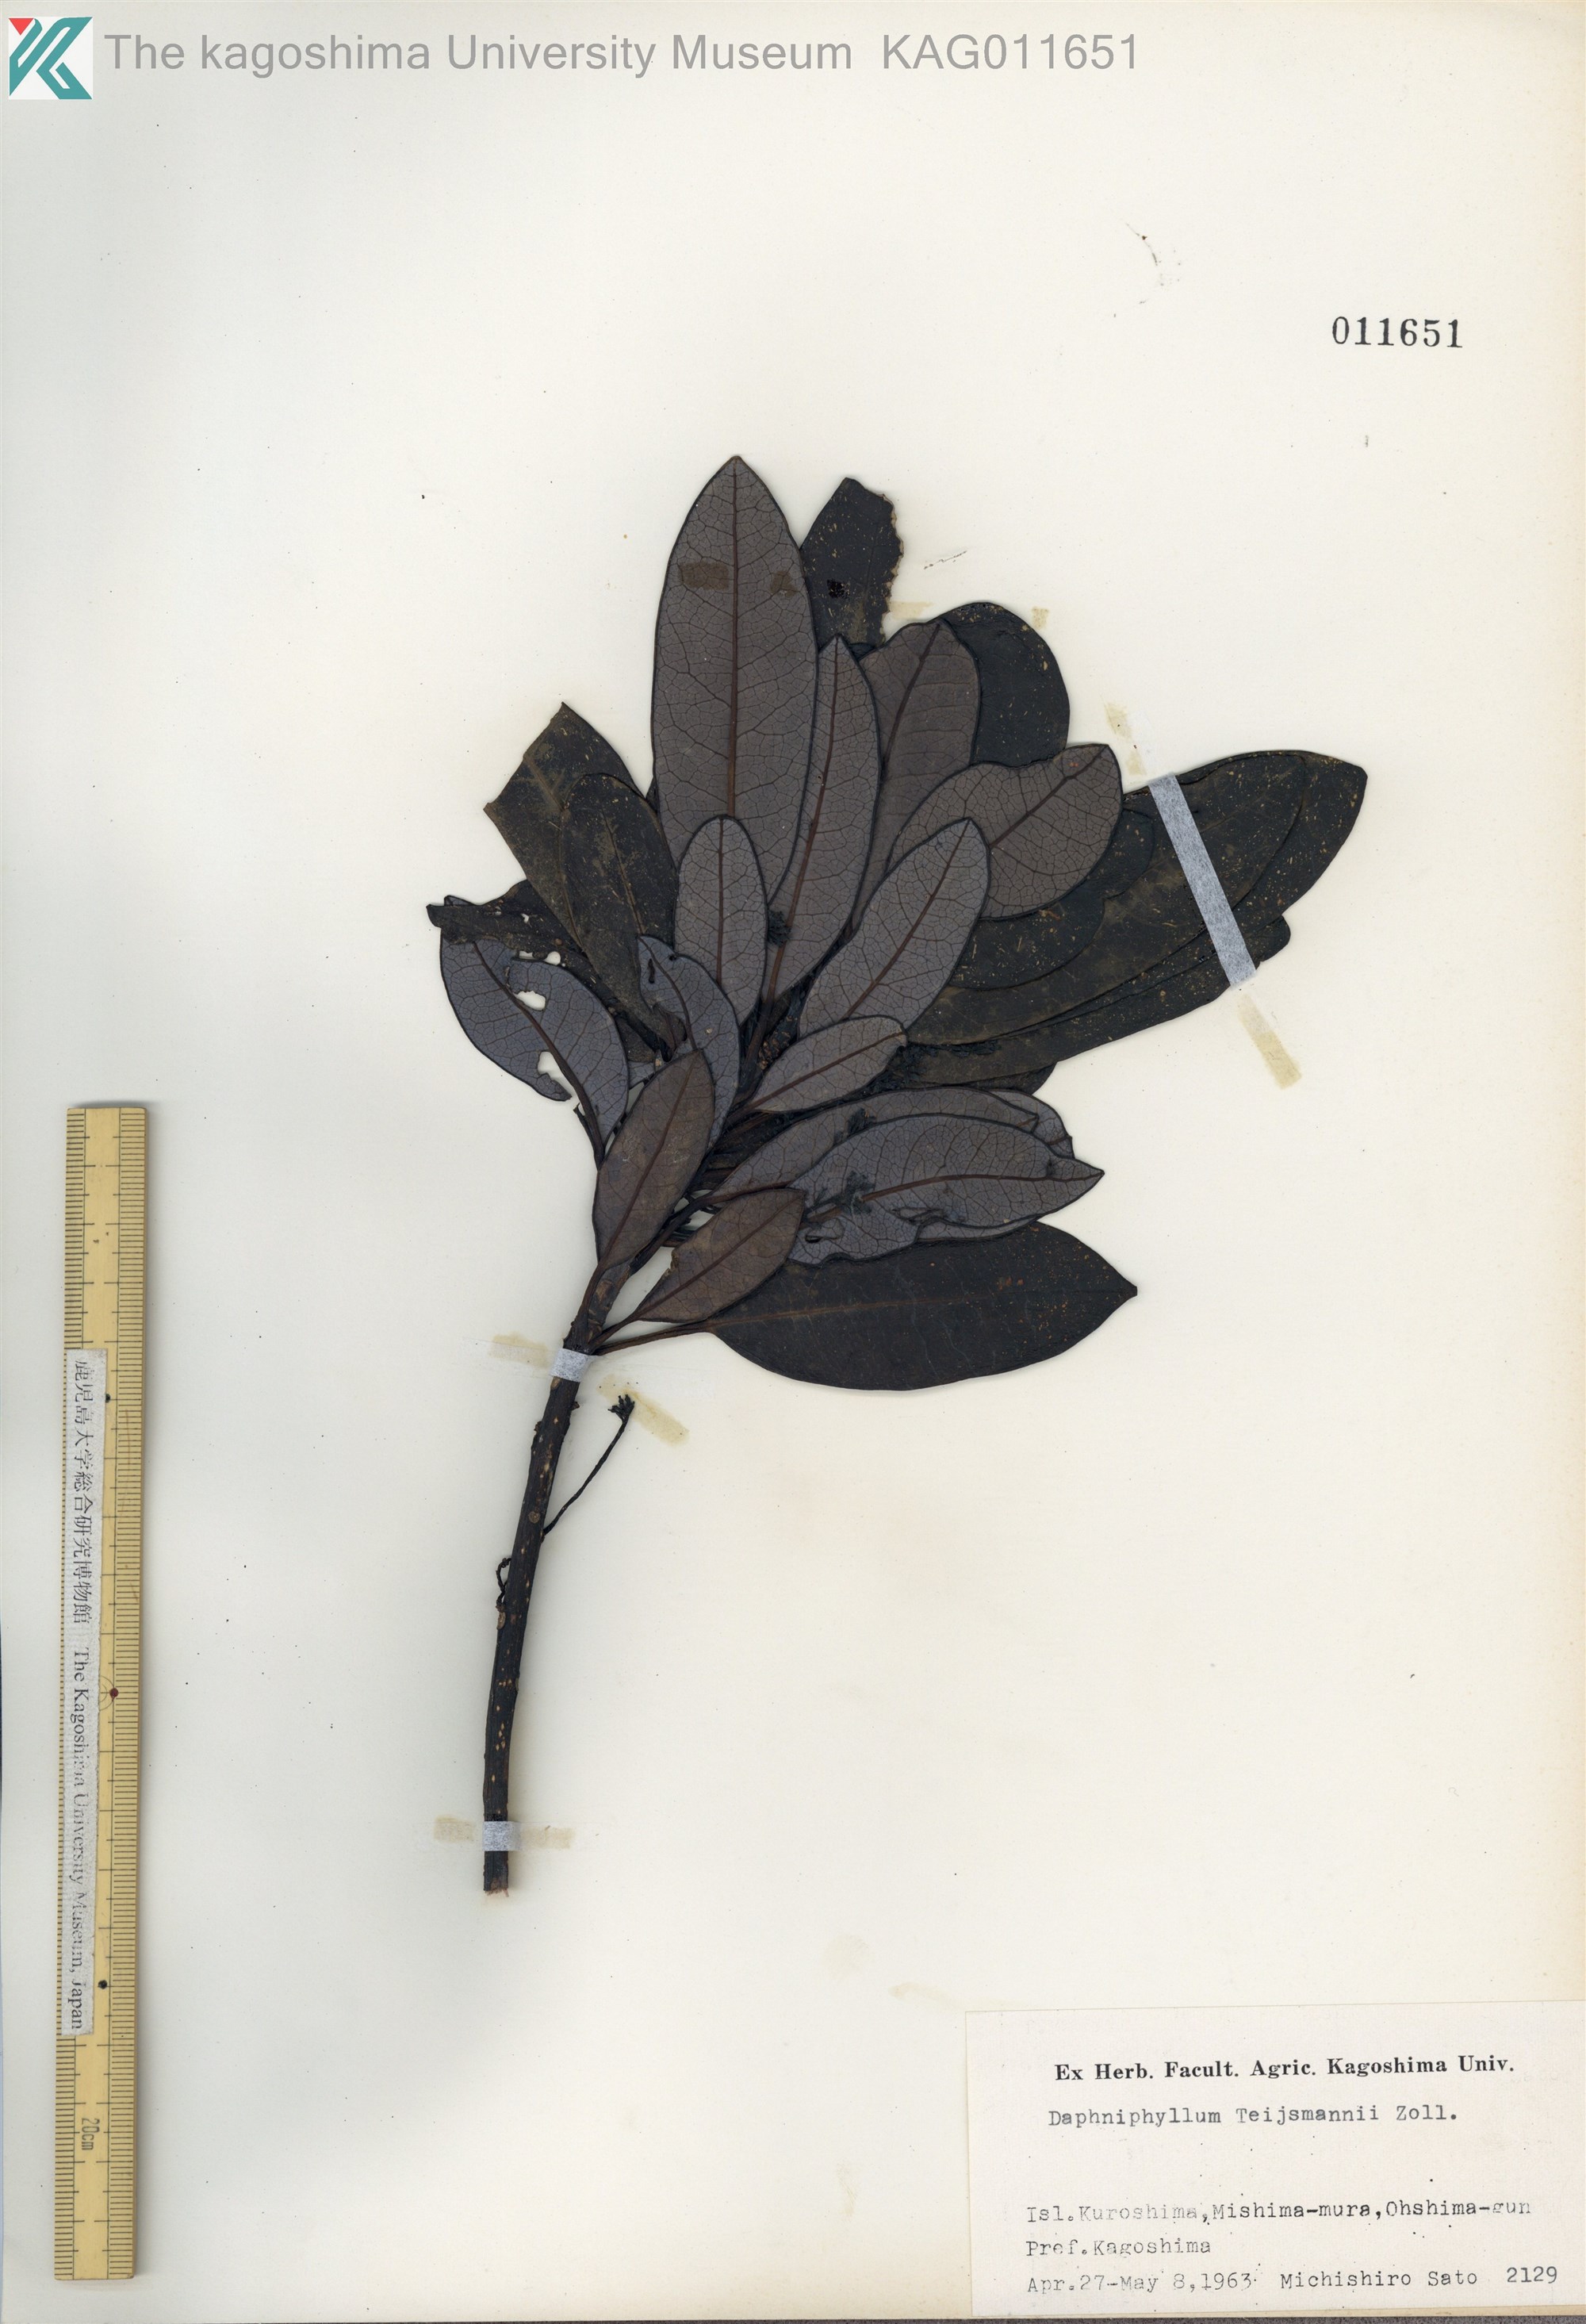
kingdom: Plantae
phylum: Tracheophyta
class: Magnoliopsida
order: Saxifragales
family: Daphniphyllaceae
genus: Daphniphyllum
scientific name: Daphniphyllum teijsmannii
